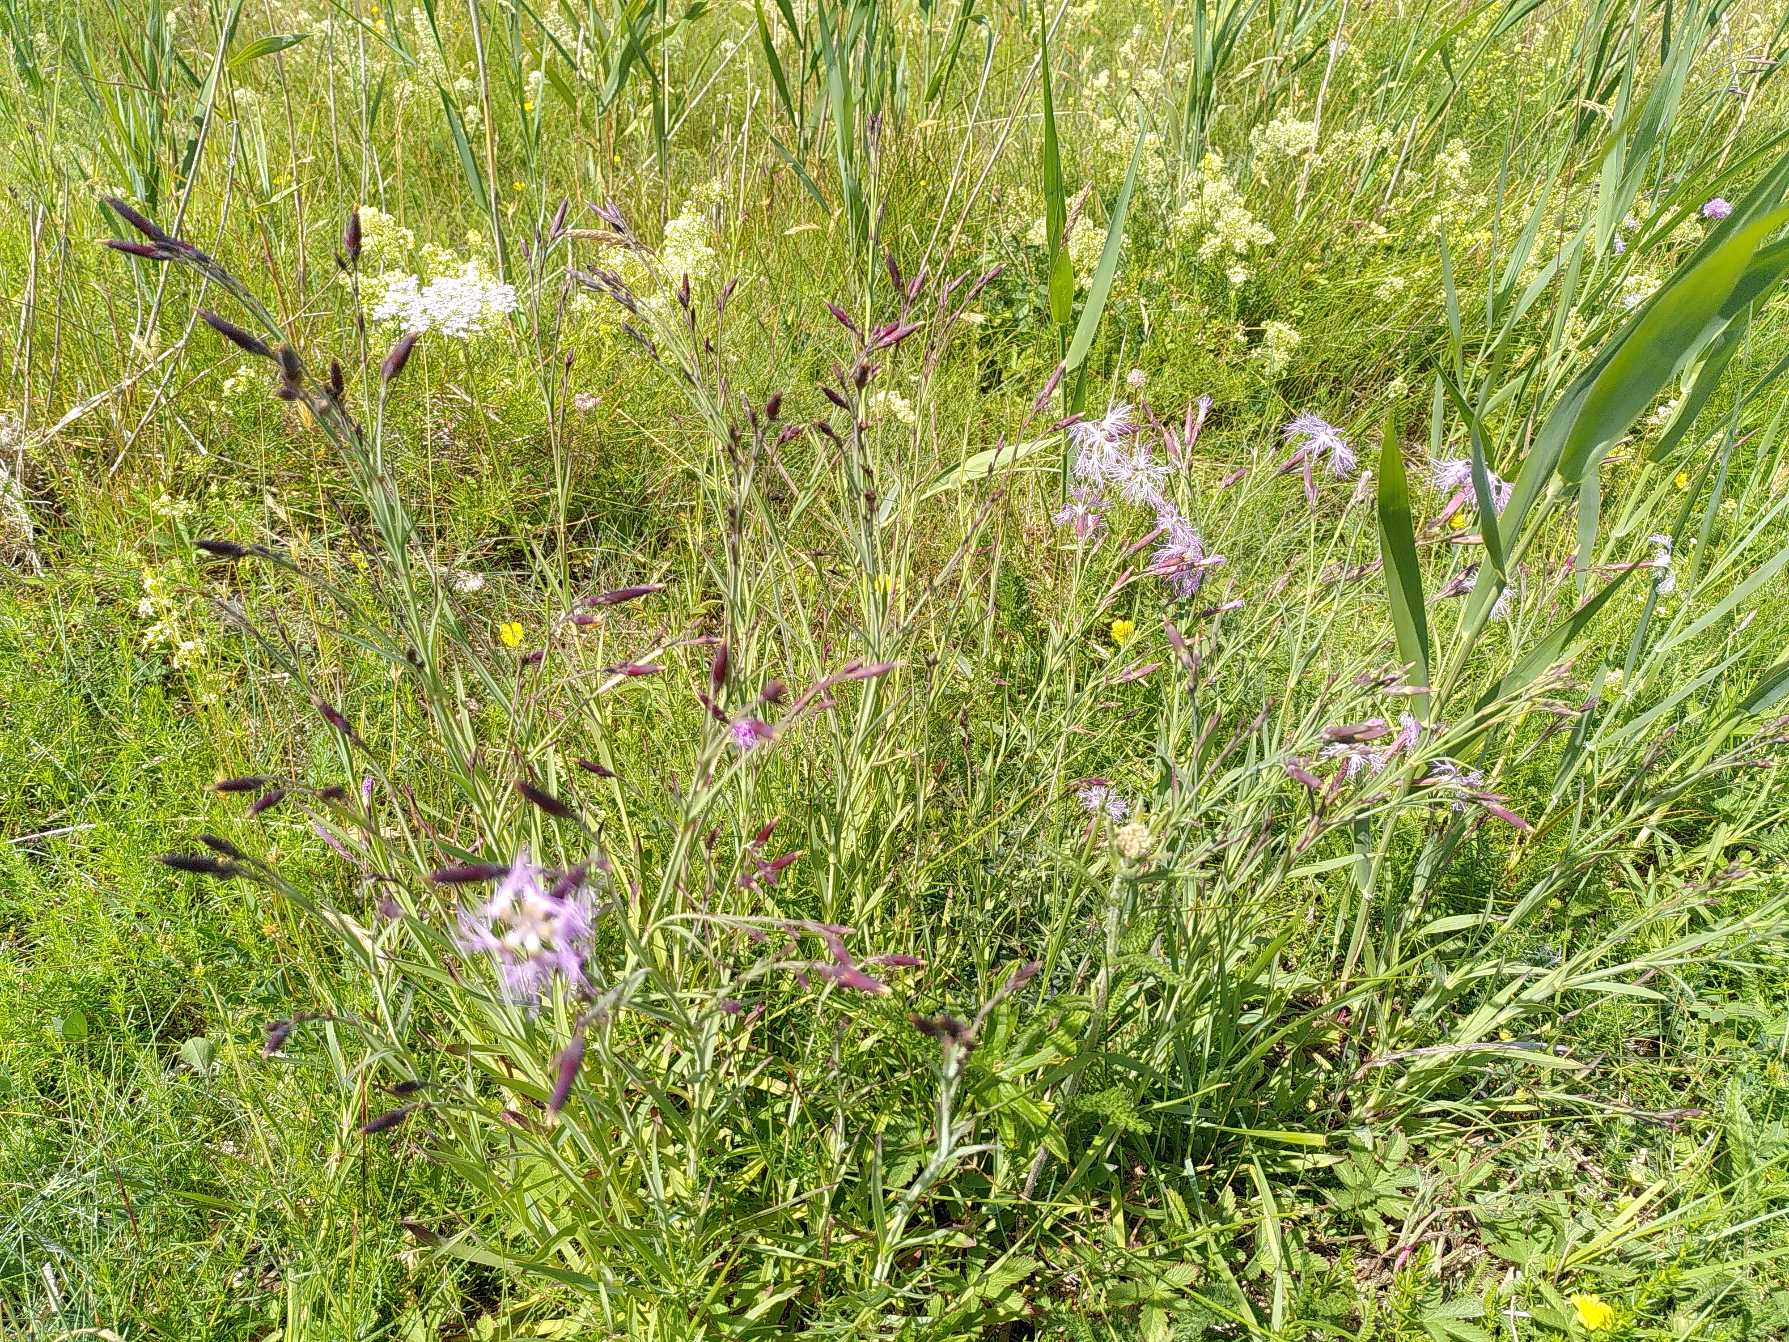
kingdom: Plantae
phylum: Tracheophyta
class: Magnoliopsida
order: Caryophyllales
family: Caryophyllaceae
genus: Dianthus
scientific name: Dianthus superbus
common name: Strand-nellike
